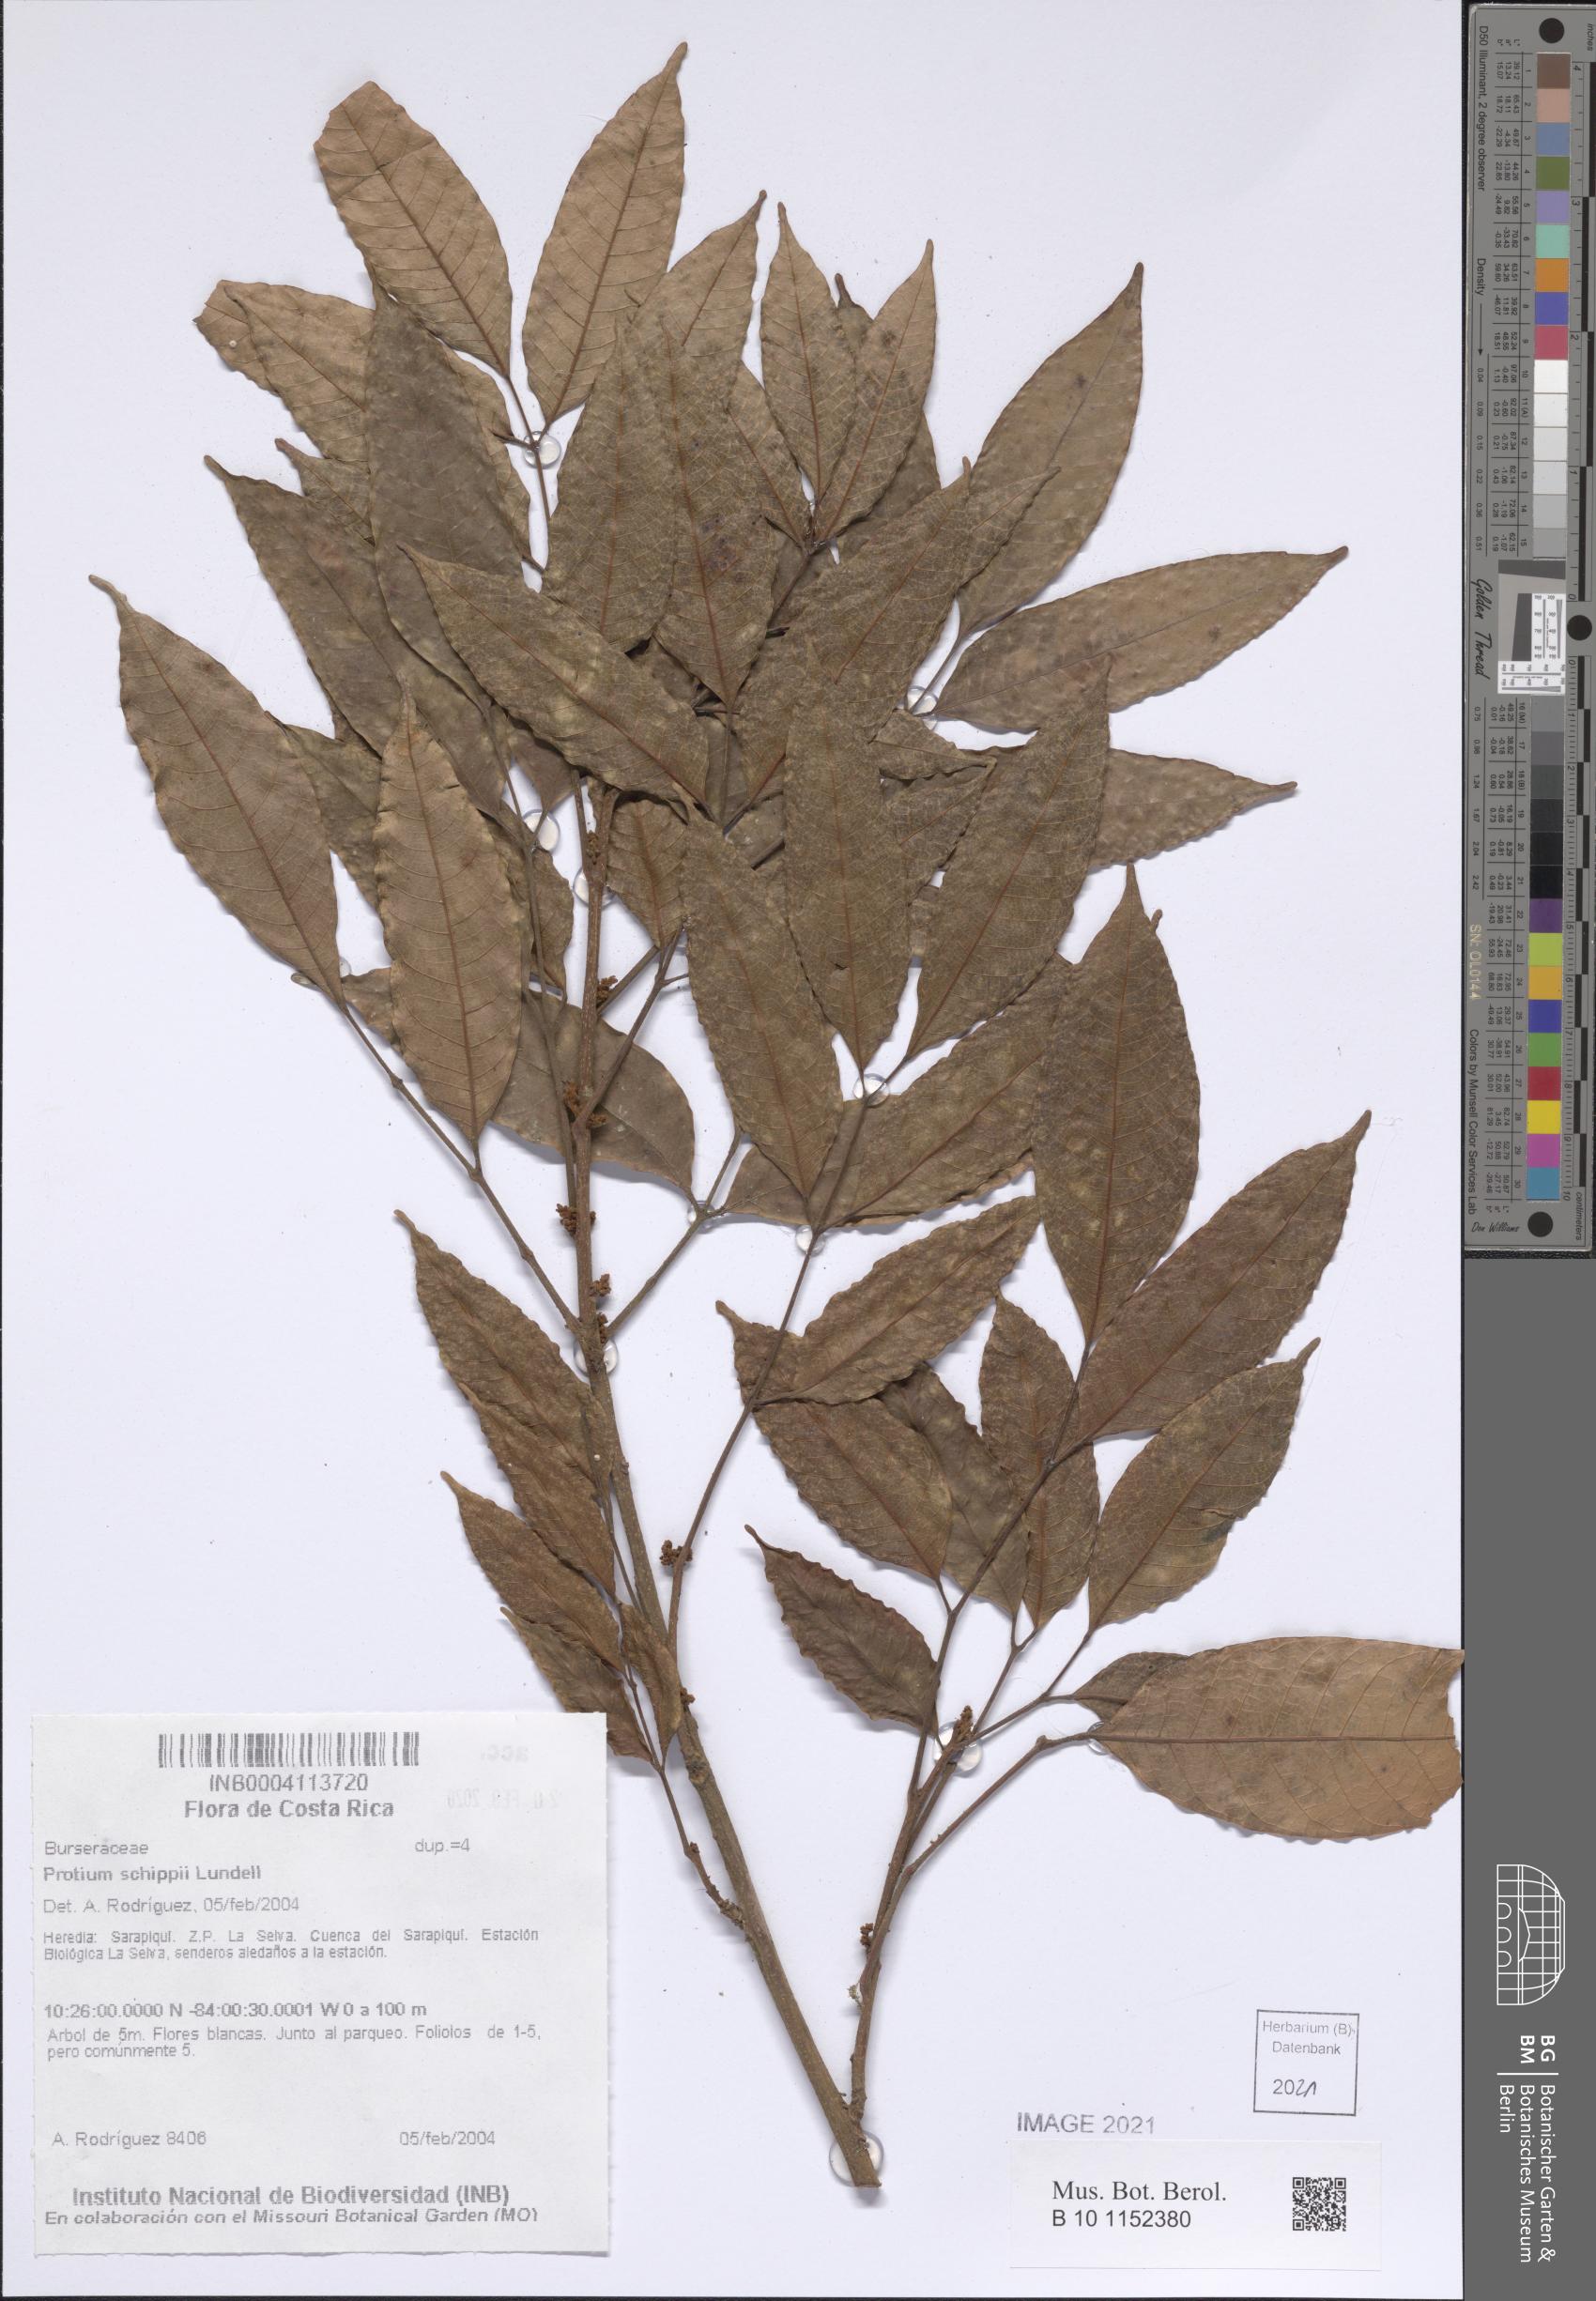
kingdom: Plantae
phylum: Tracheophyta
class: Magnoliopsida
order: Sapindales
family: Burseraceae
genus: Protium
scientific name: Protium confusum
